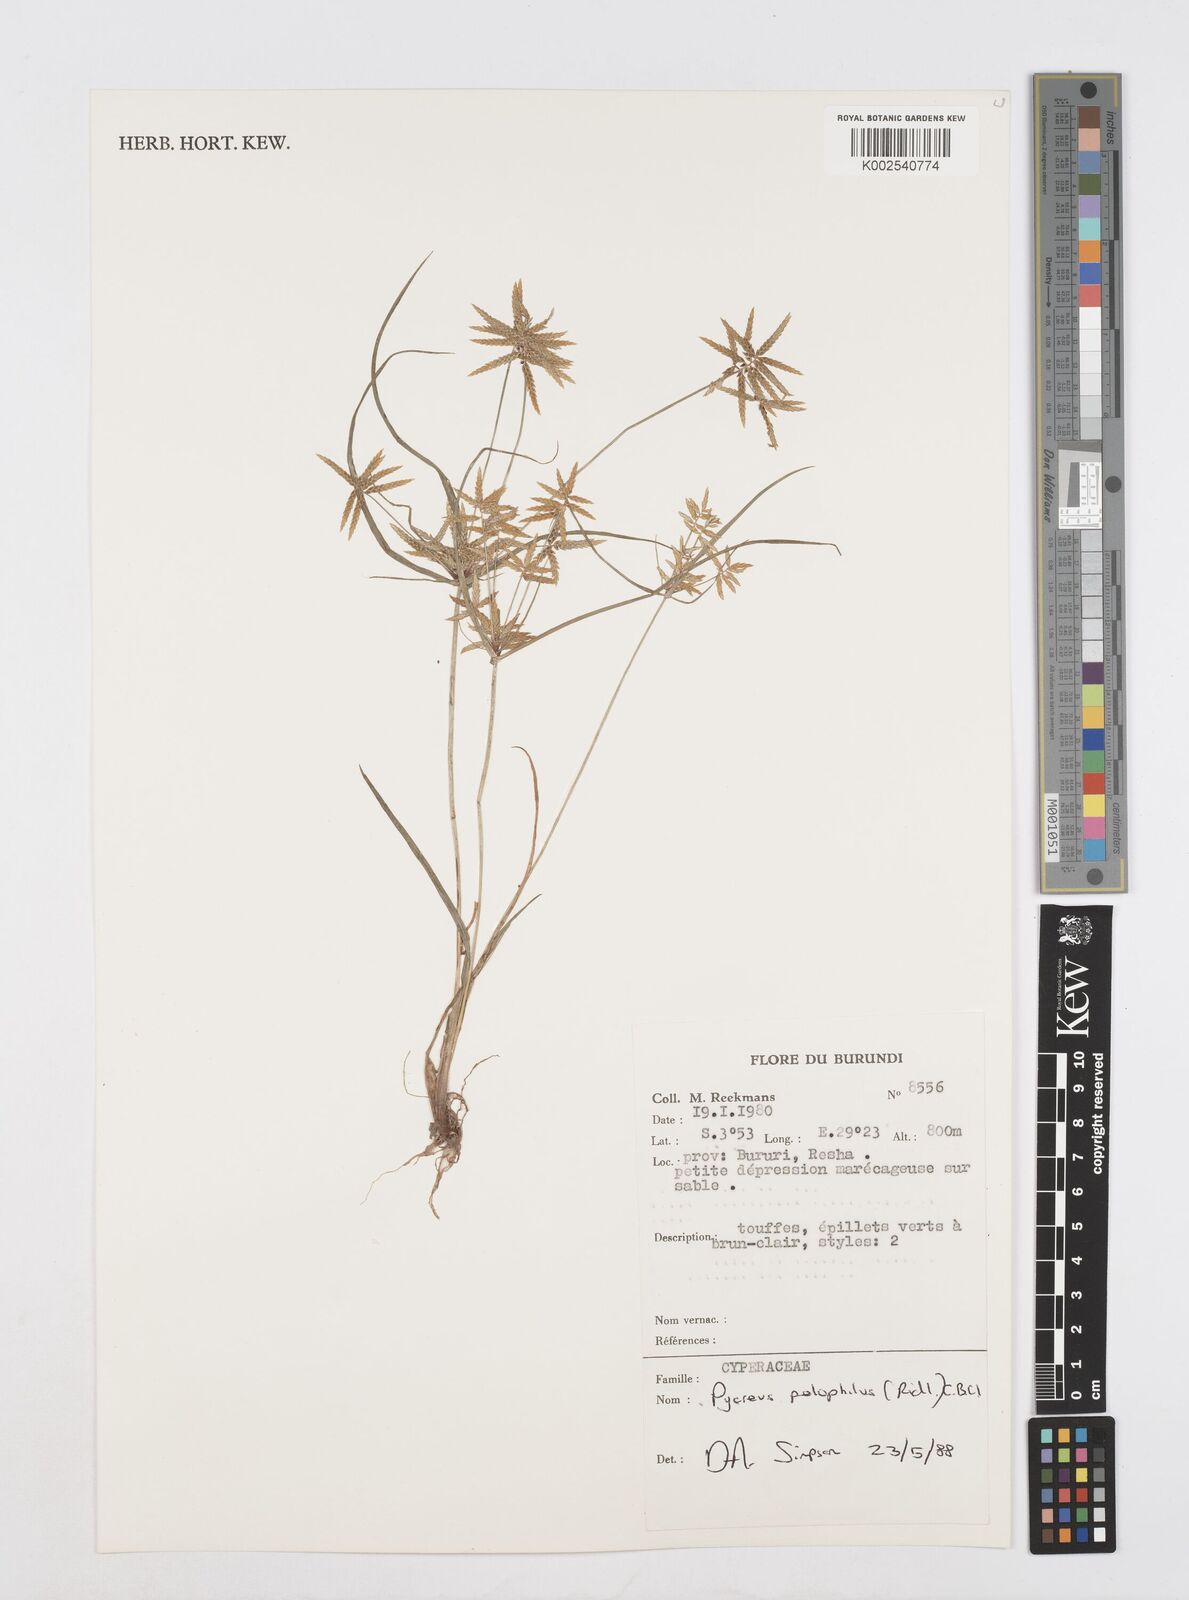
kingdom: Plantae
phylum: Tracheophyta
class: Liliopsida
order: Poales
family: Cyperaceae
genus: Cyperus
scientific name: Cyperus pelophilus
